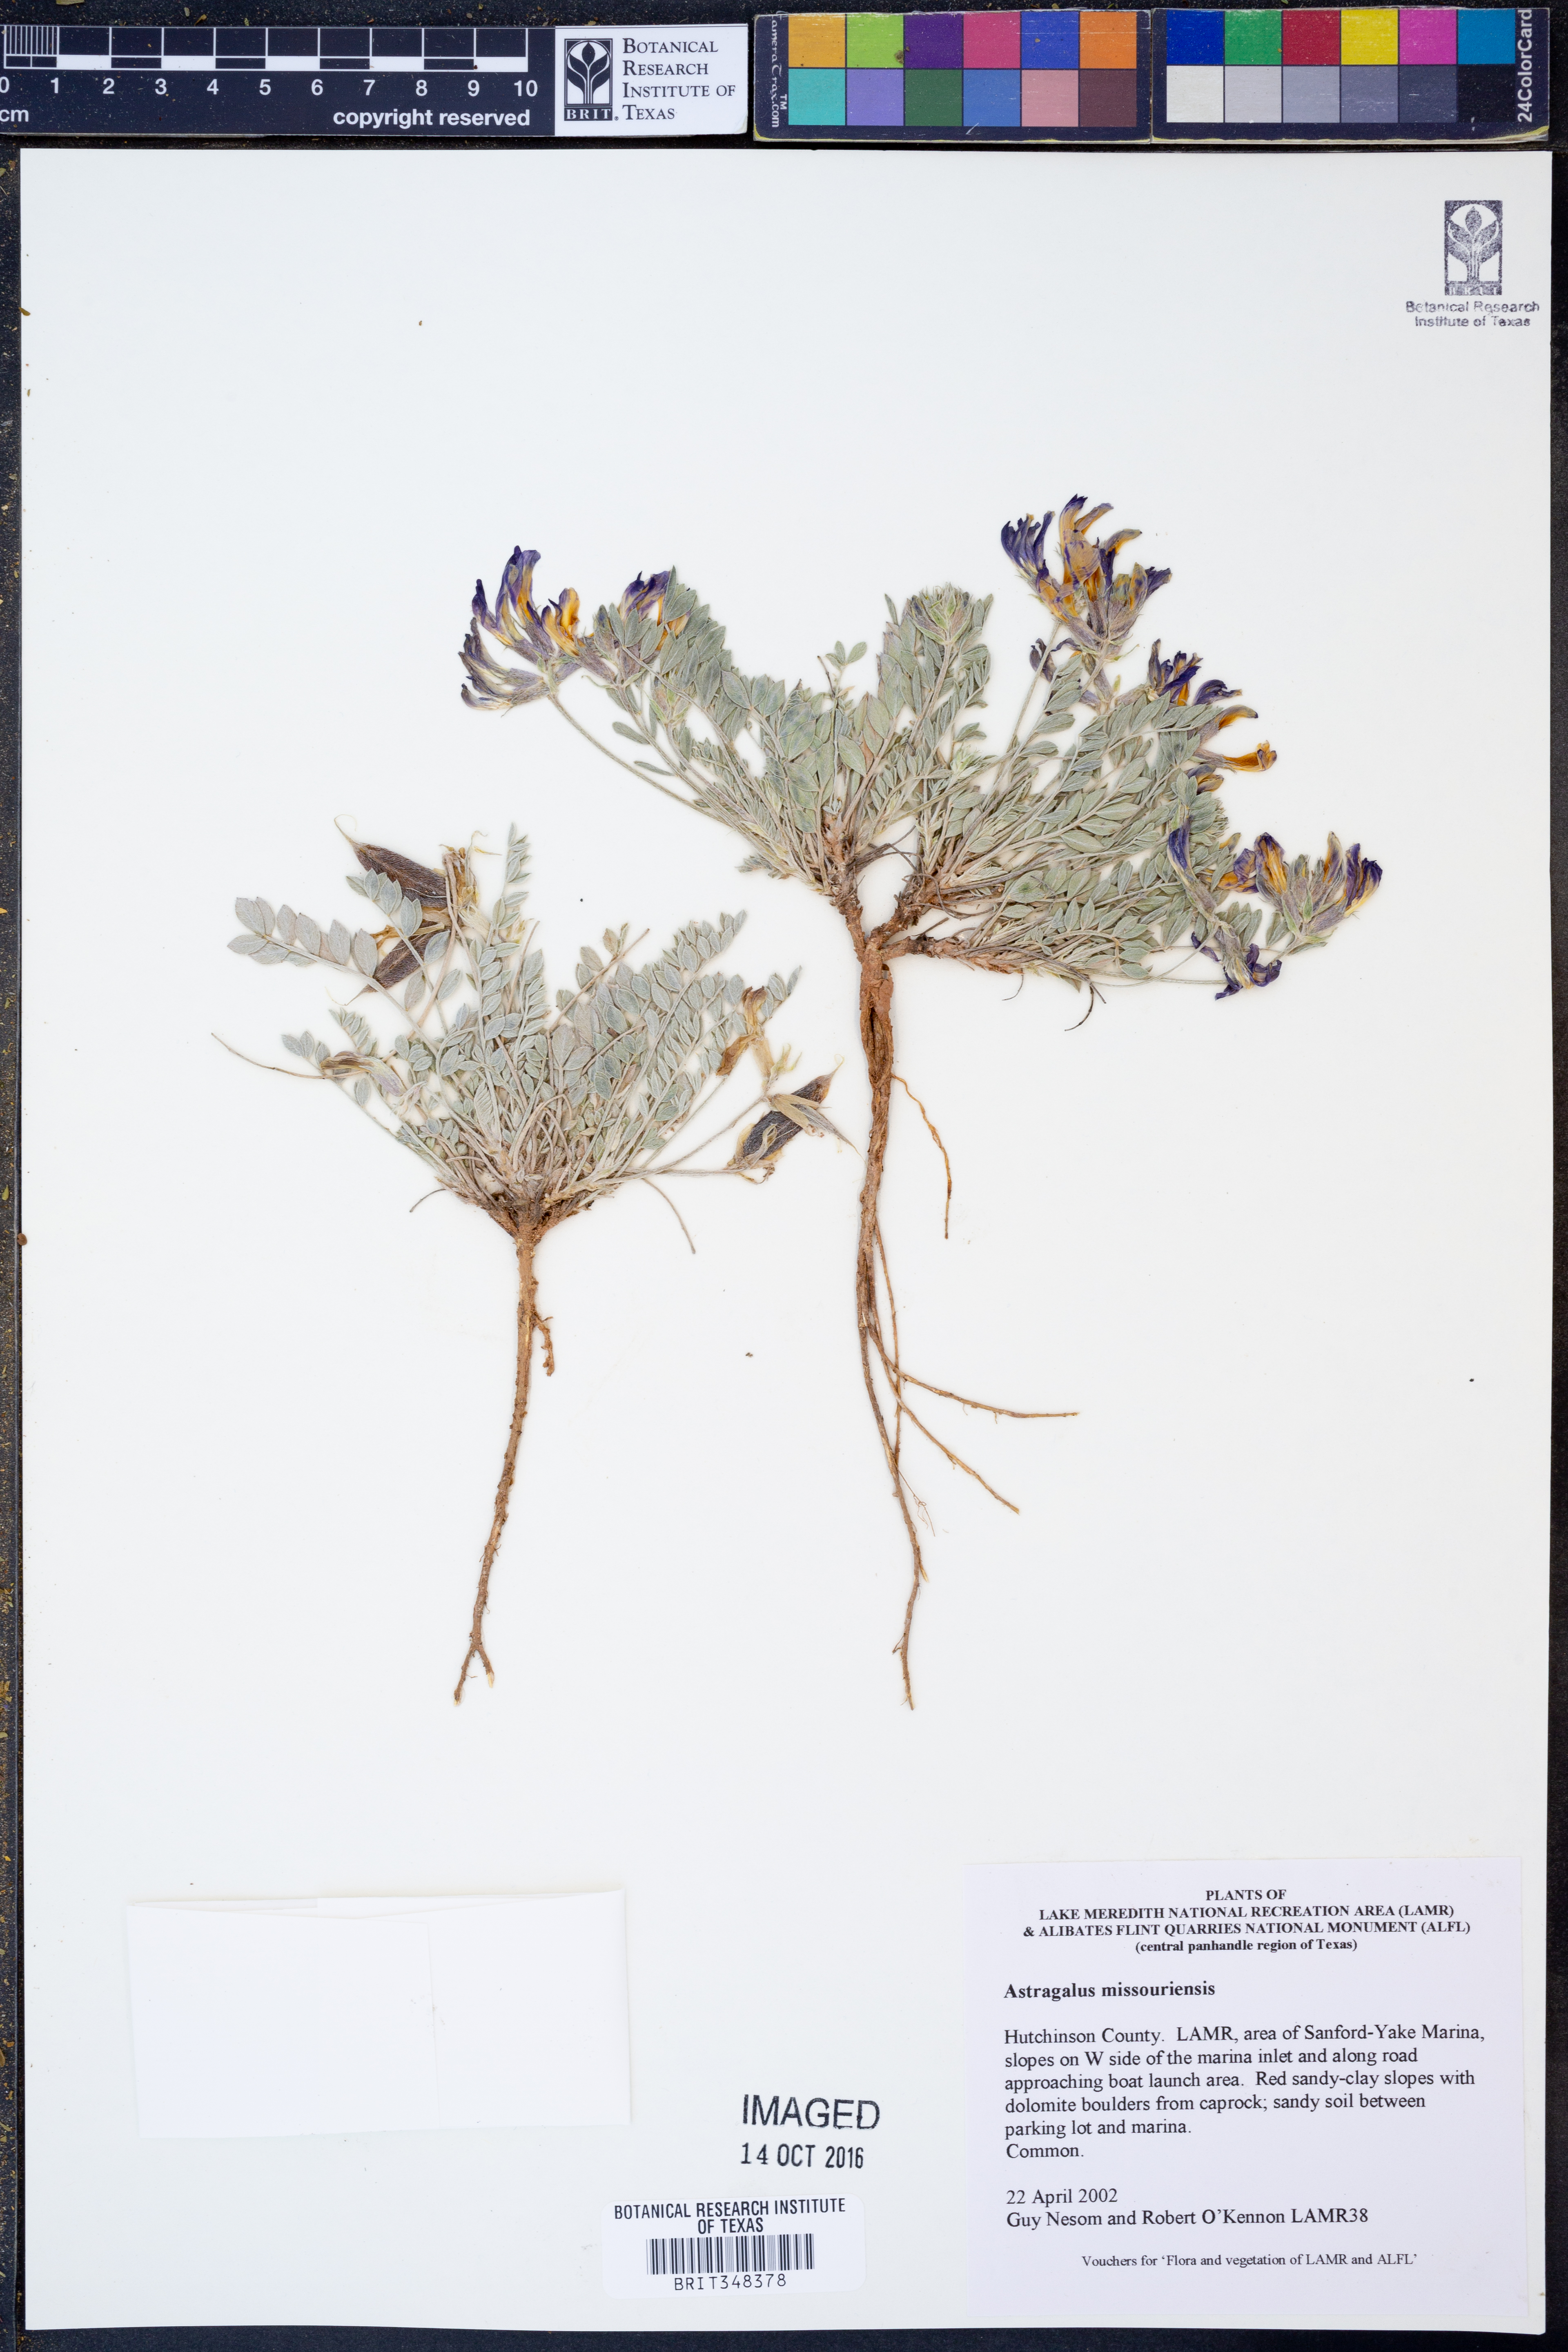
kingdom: Plantae
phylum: Tracheophyta
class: Magnoliopsida
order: Fabales
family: Fabaceae
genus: Astragalus
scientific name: Astragalus missouriensis
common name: Missouri milk-vetch
